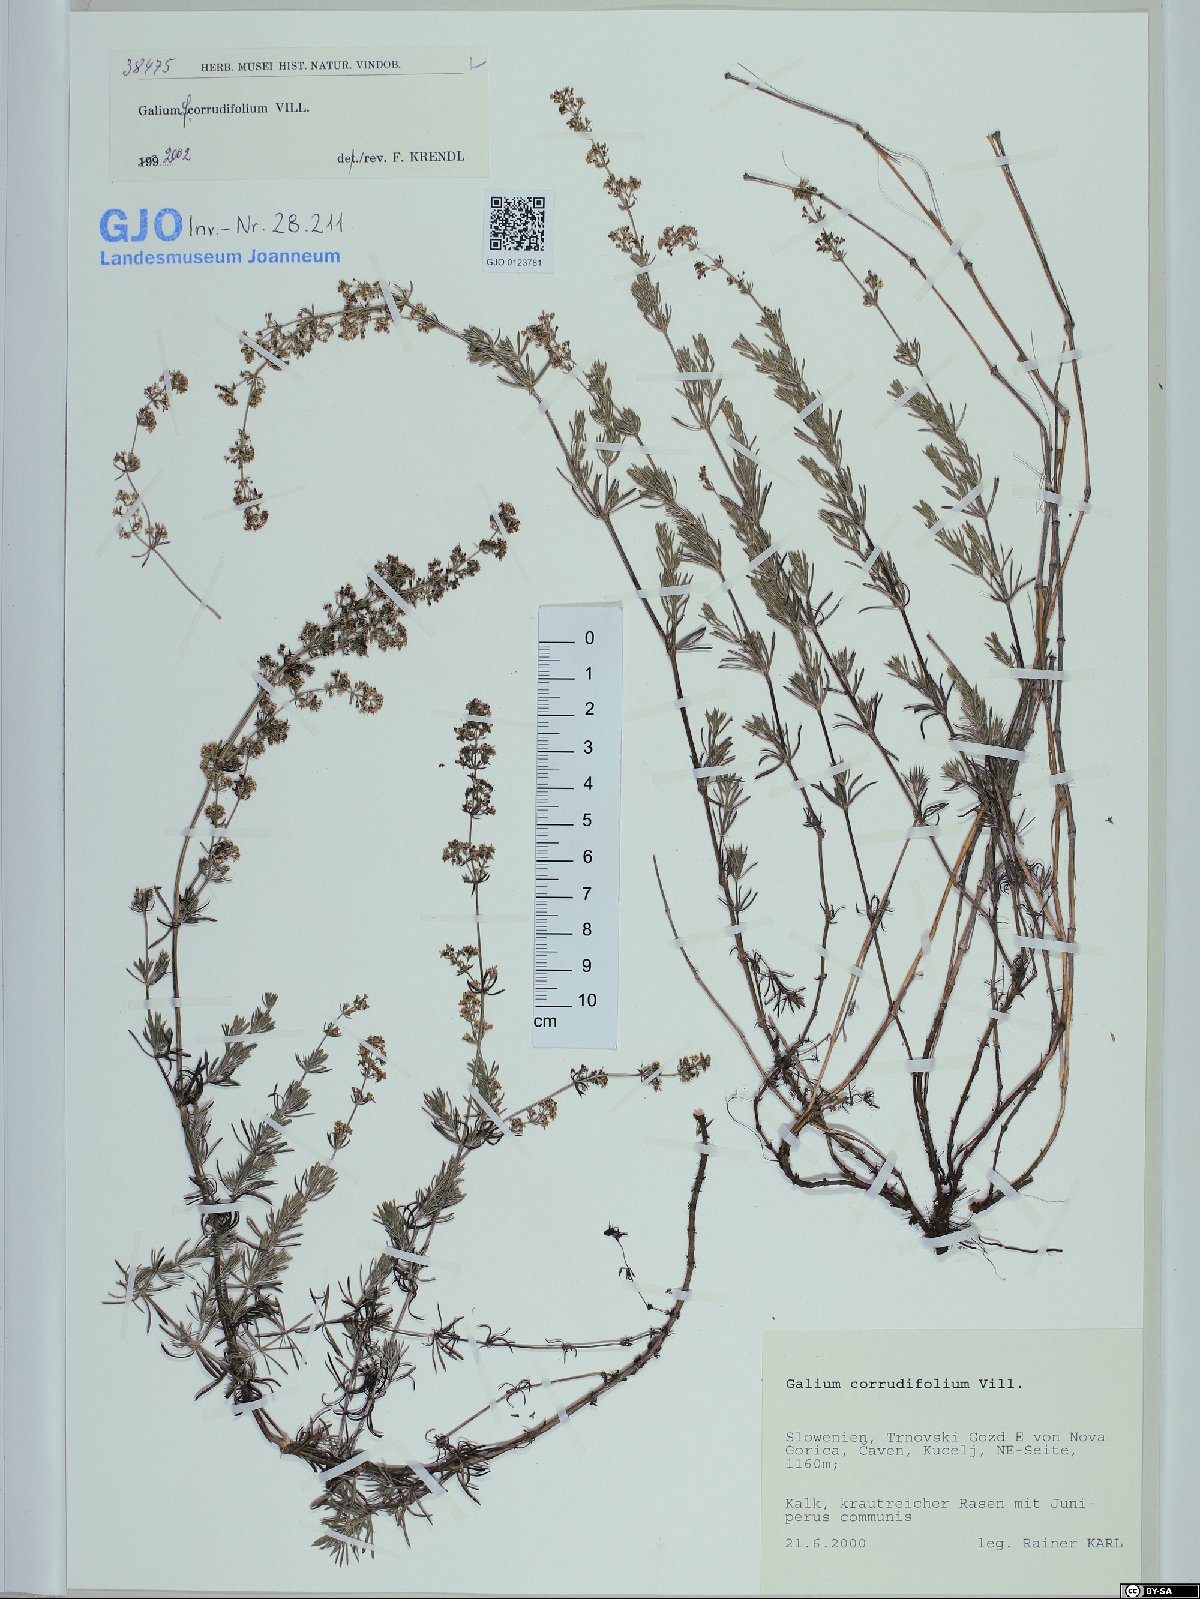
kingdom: Plantae
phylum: Tracheophyta
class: Magnoliopsida
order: Gentianales
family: Rubiaceae
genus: Galium
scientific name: Galium lucidum
